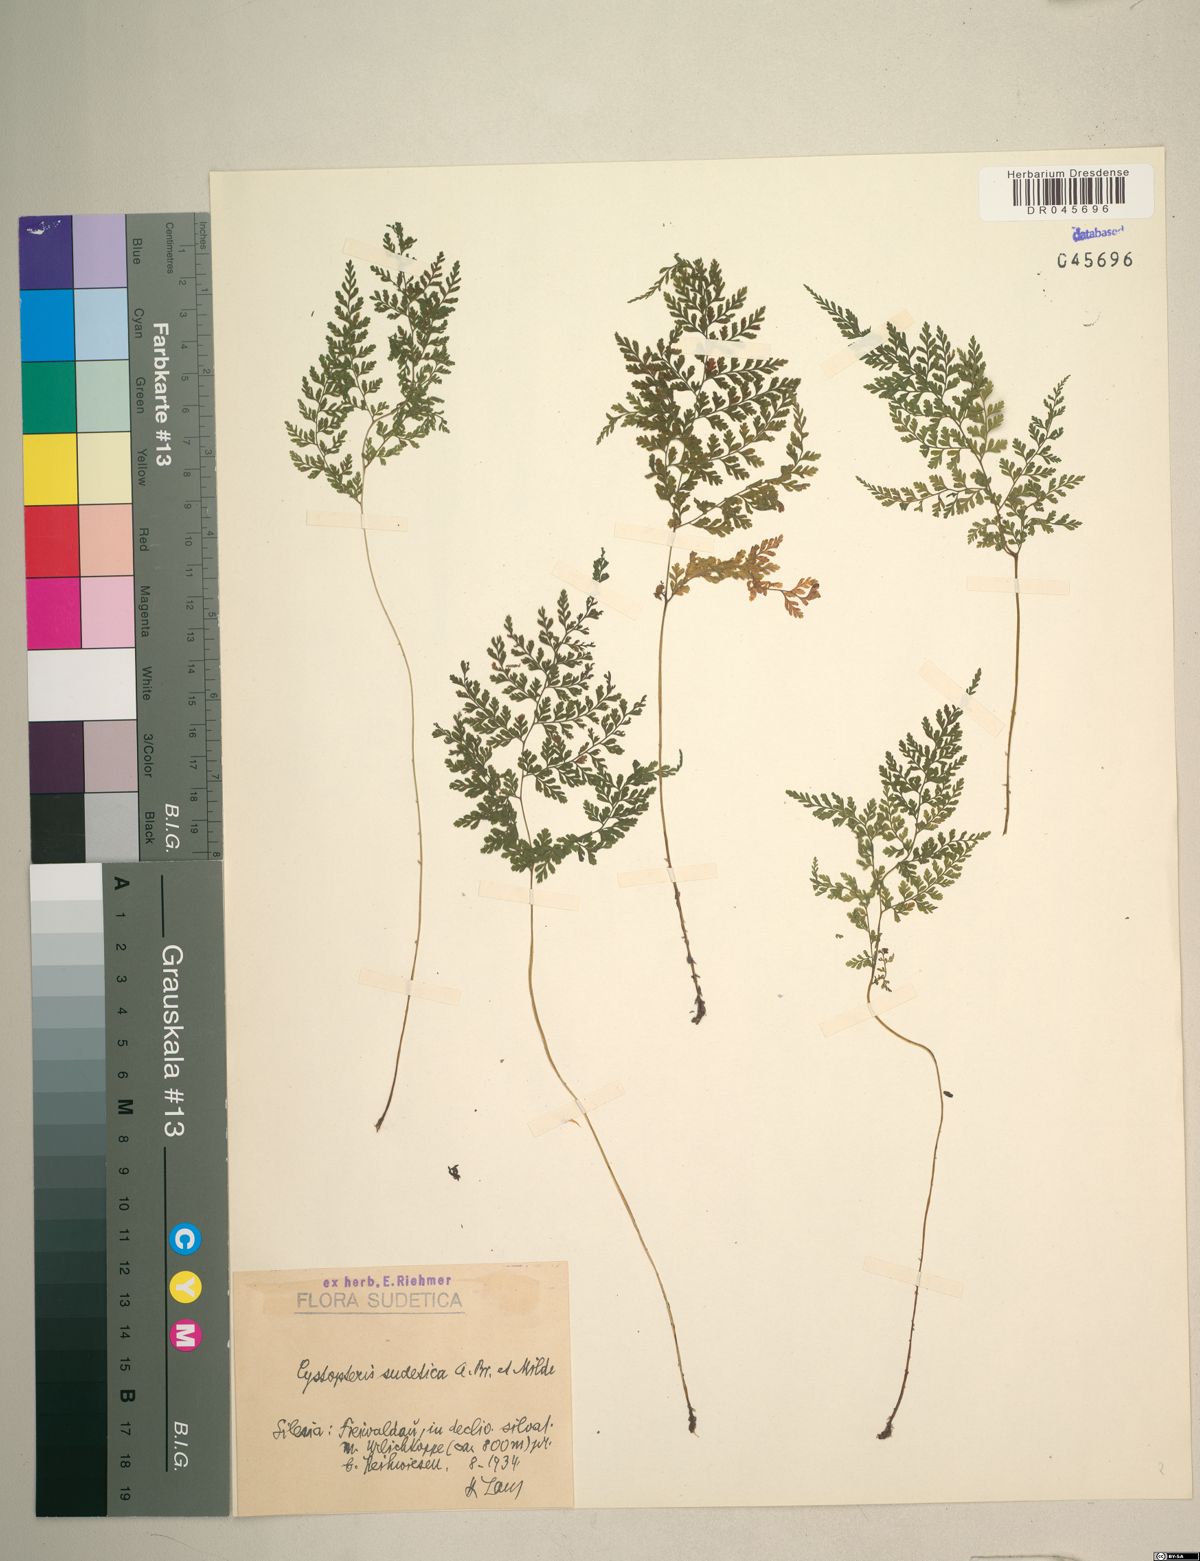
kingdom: Plantae
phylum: Tracheophyta
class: Polypodiopsida
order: Polypodiales
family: Cystopteridaceae
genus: Cystopteris
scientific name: Cystopteris sudetica
